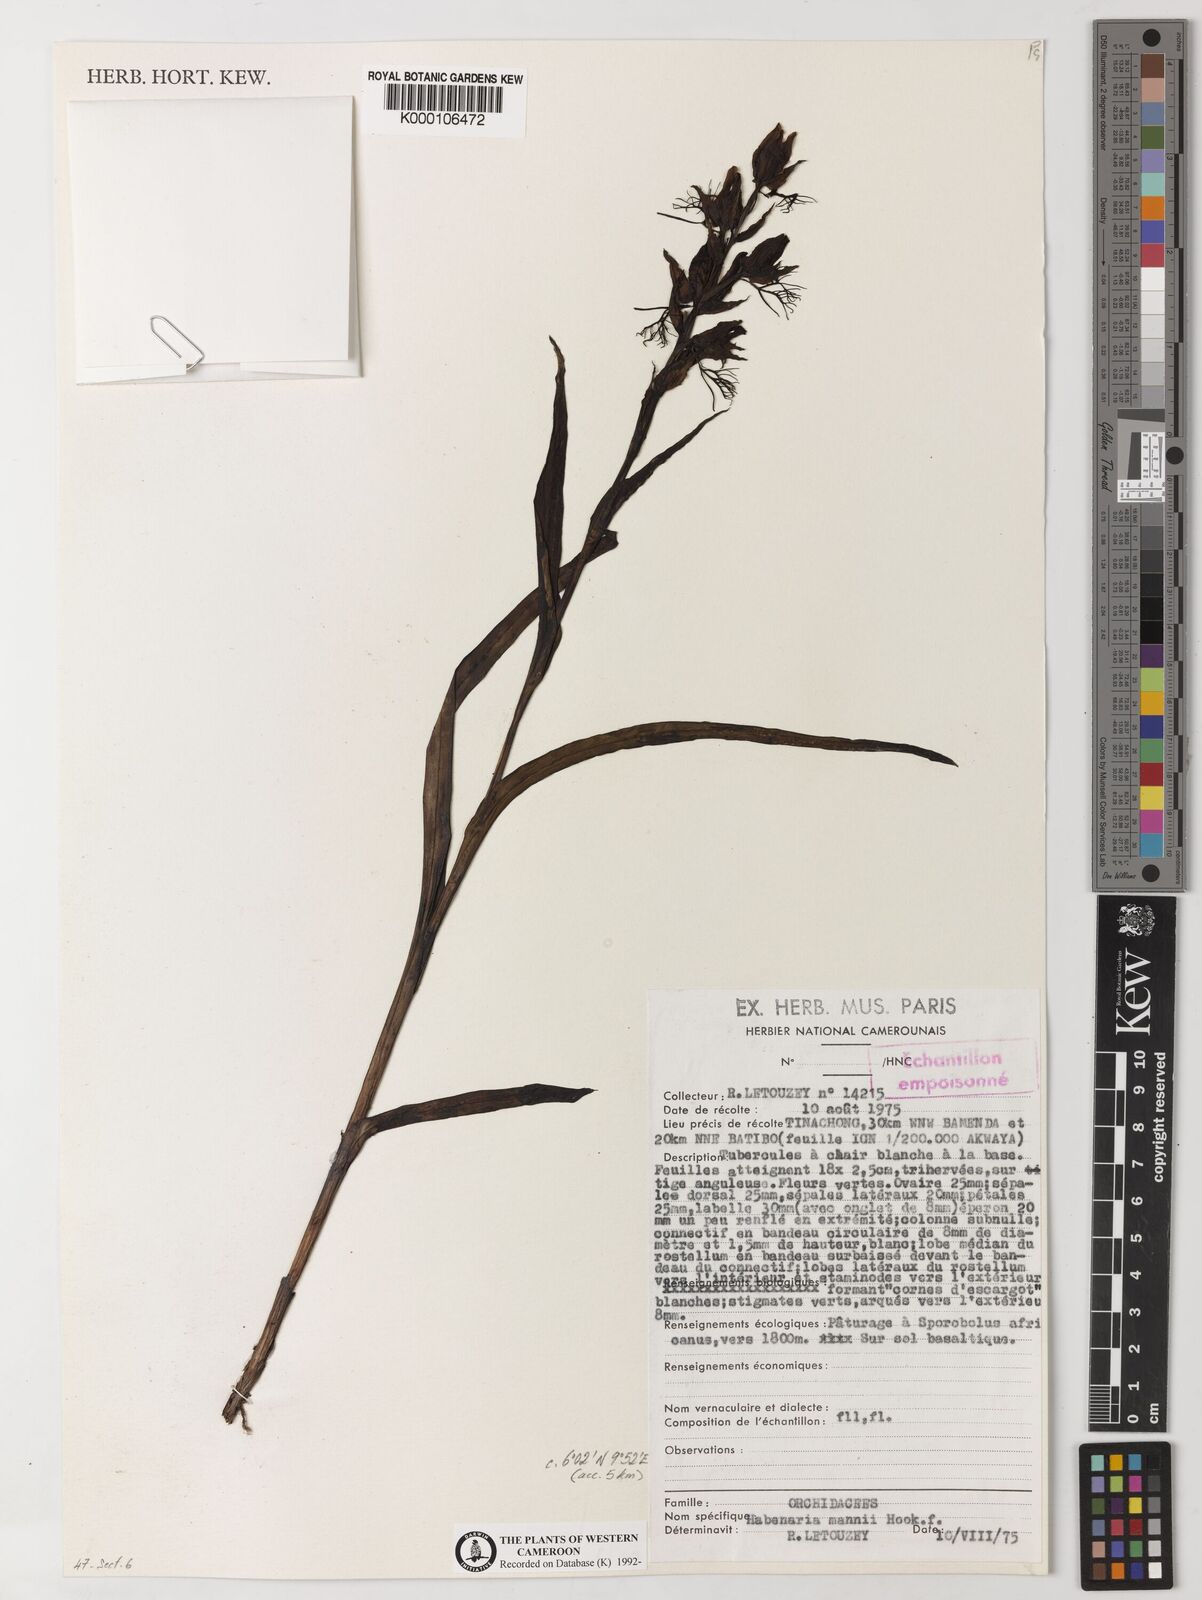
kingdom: Plantae
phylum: Tracheophyta
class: Liliopsida
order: Asparagales
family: Orchidaceae
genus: Habenaria
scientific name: Habenaria mannii
